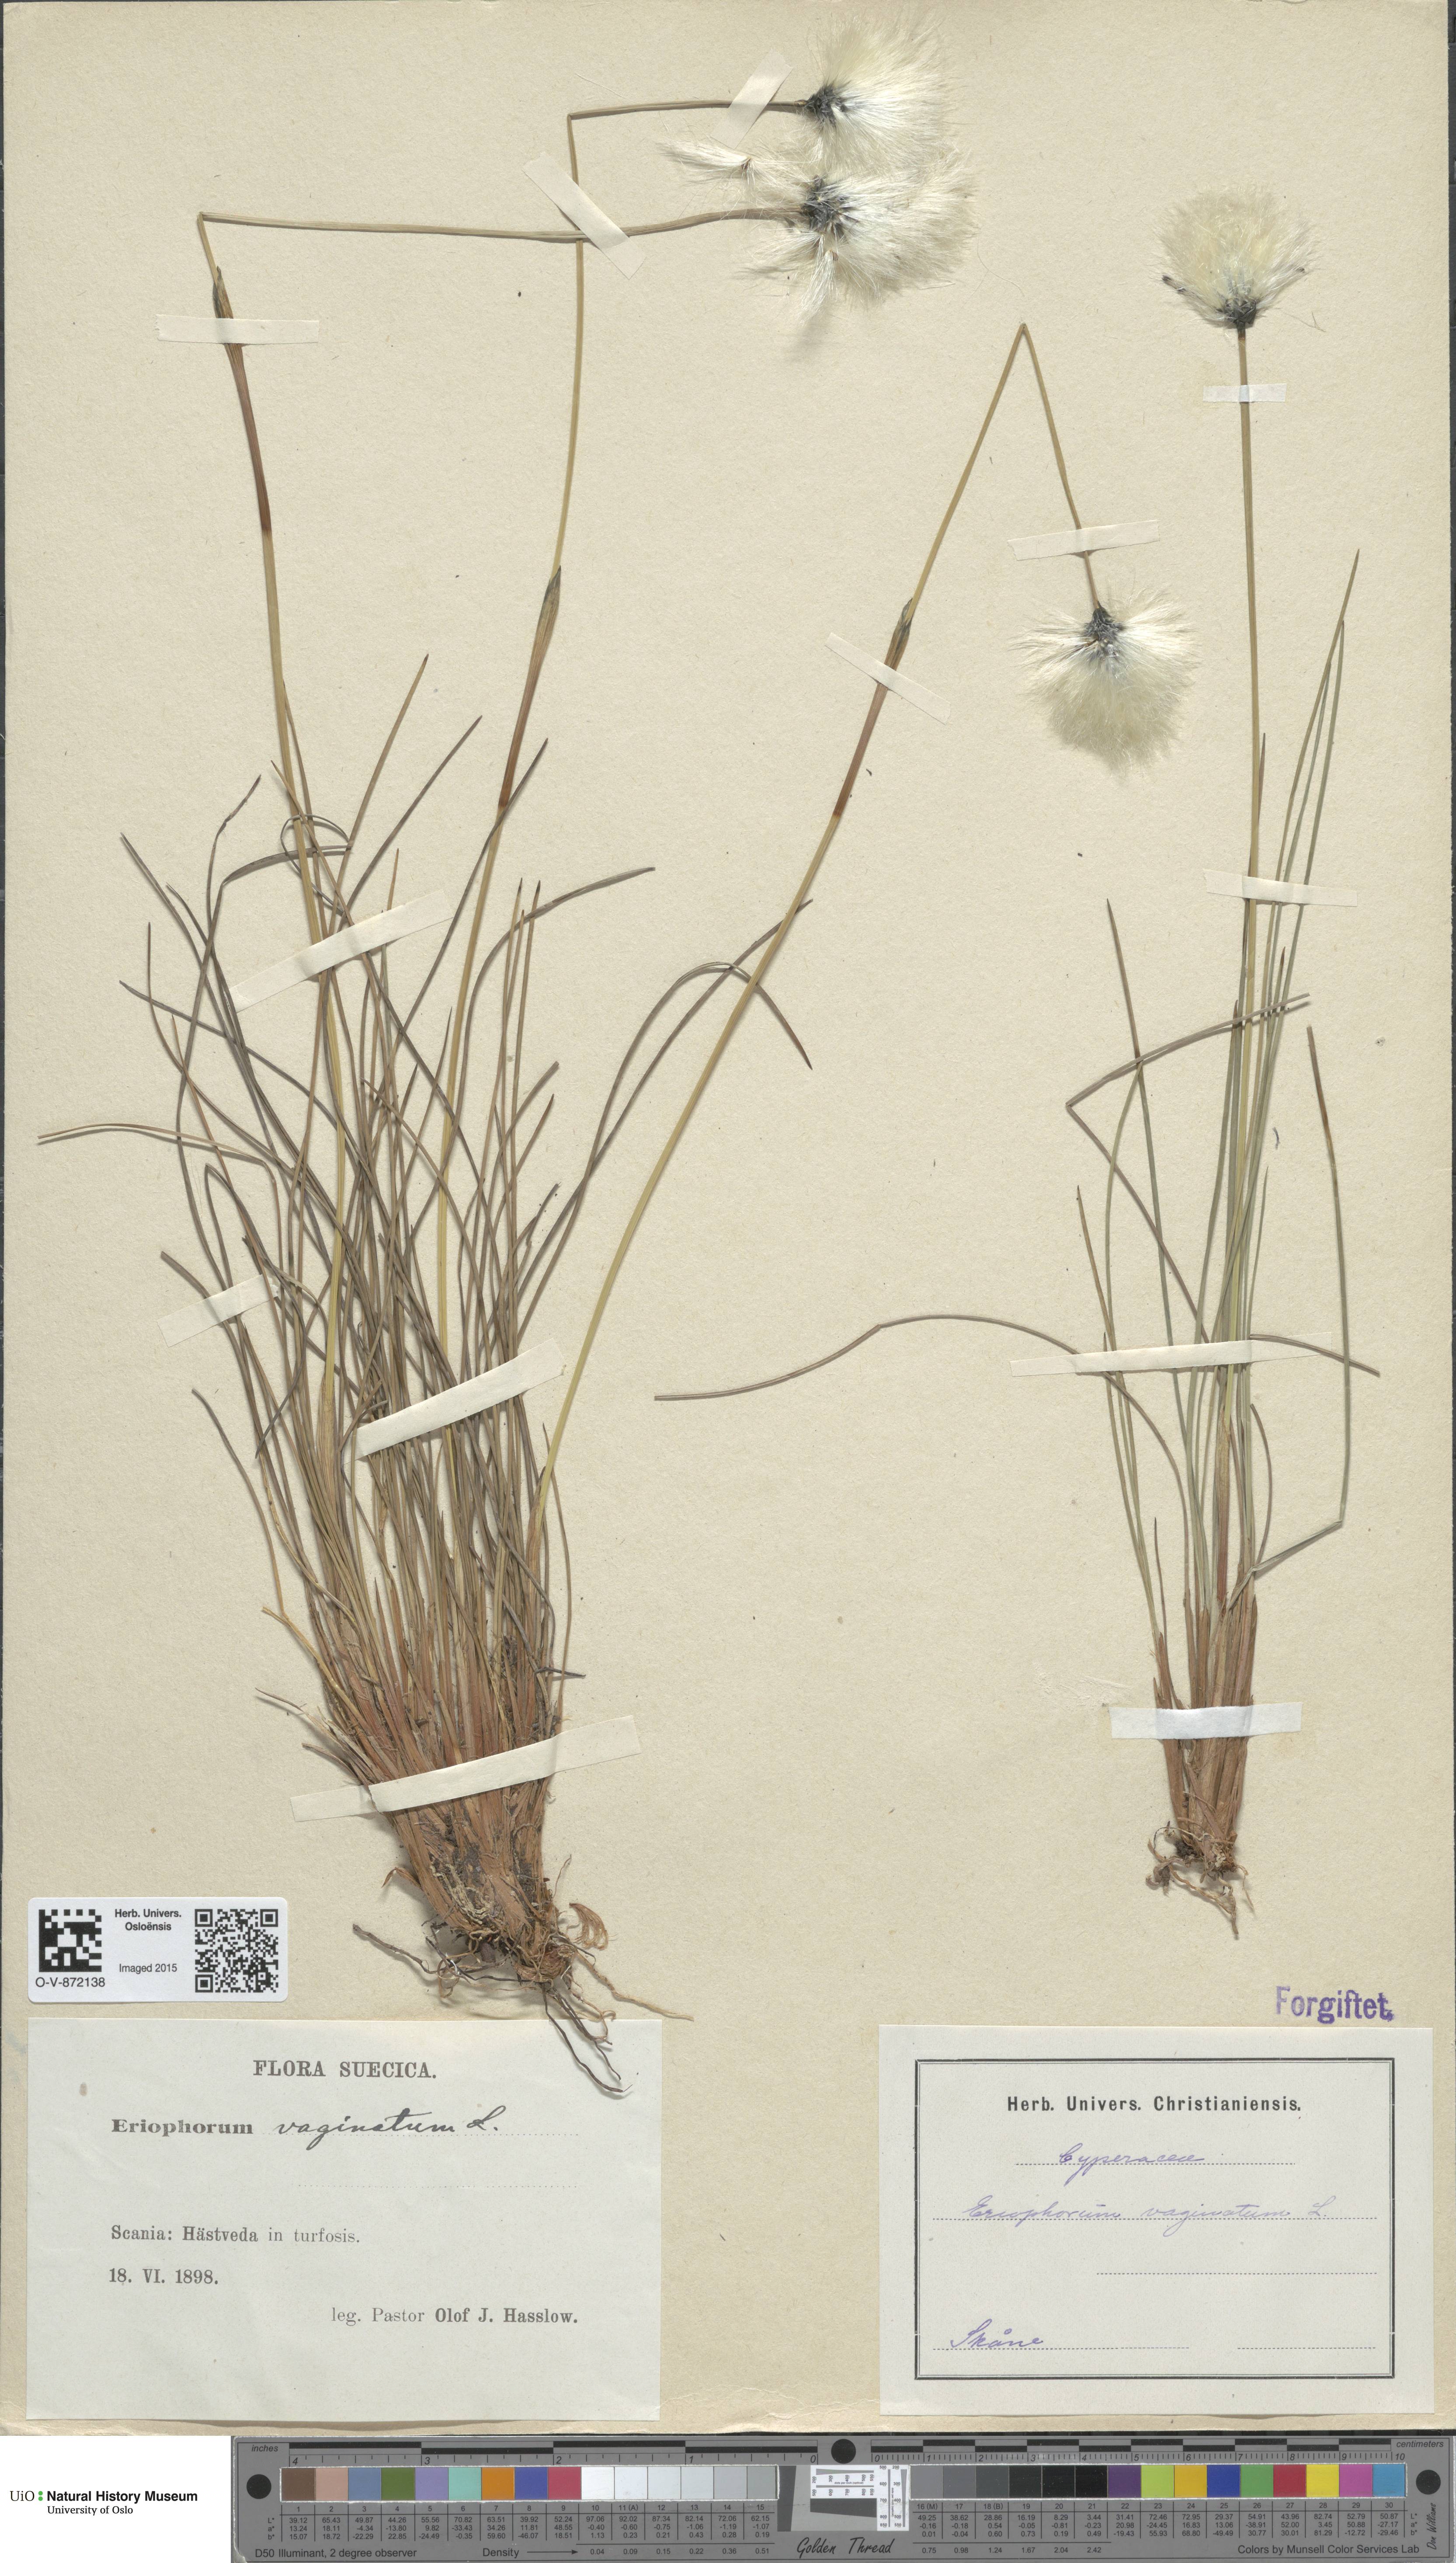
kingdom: Plantae
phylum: Tracheophyta
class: Liliopsida
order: Poales
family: Cyperaceae
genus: Eriophorum
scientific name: Eriophorum vaginatum
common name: Hare's-tail cottongrass
